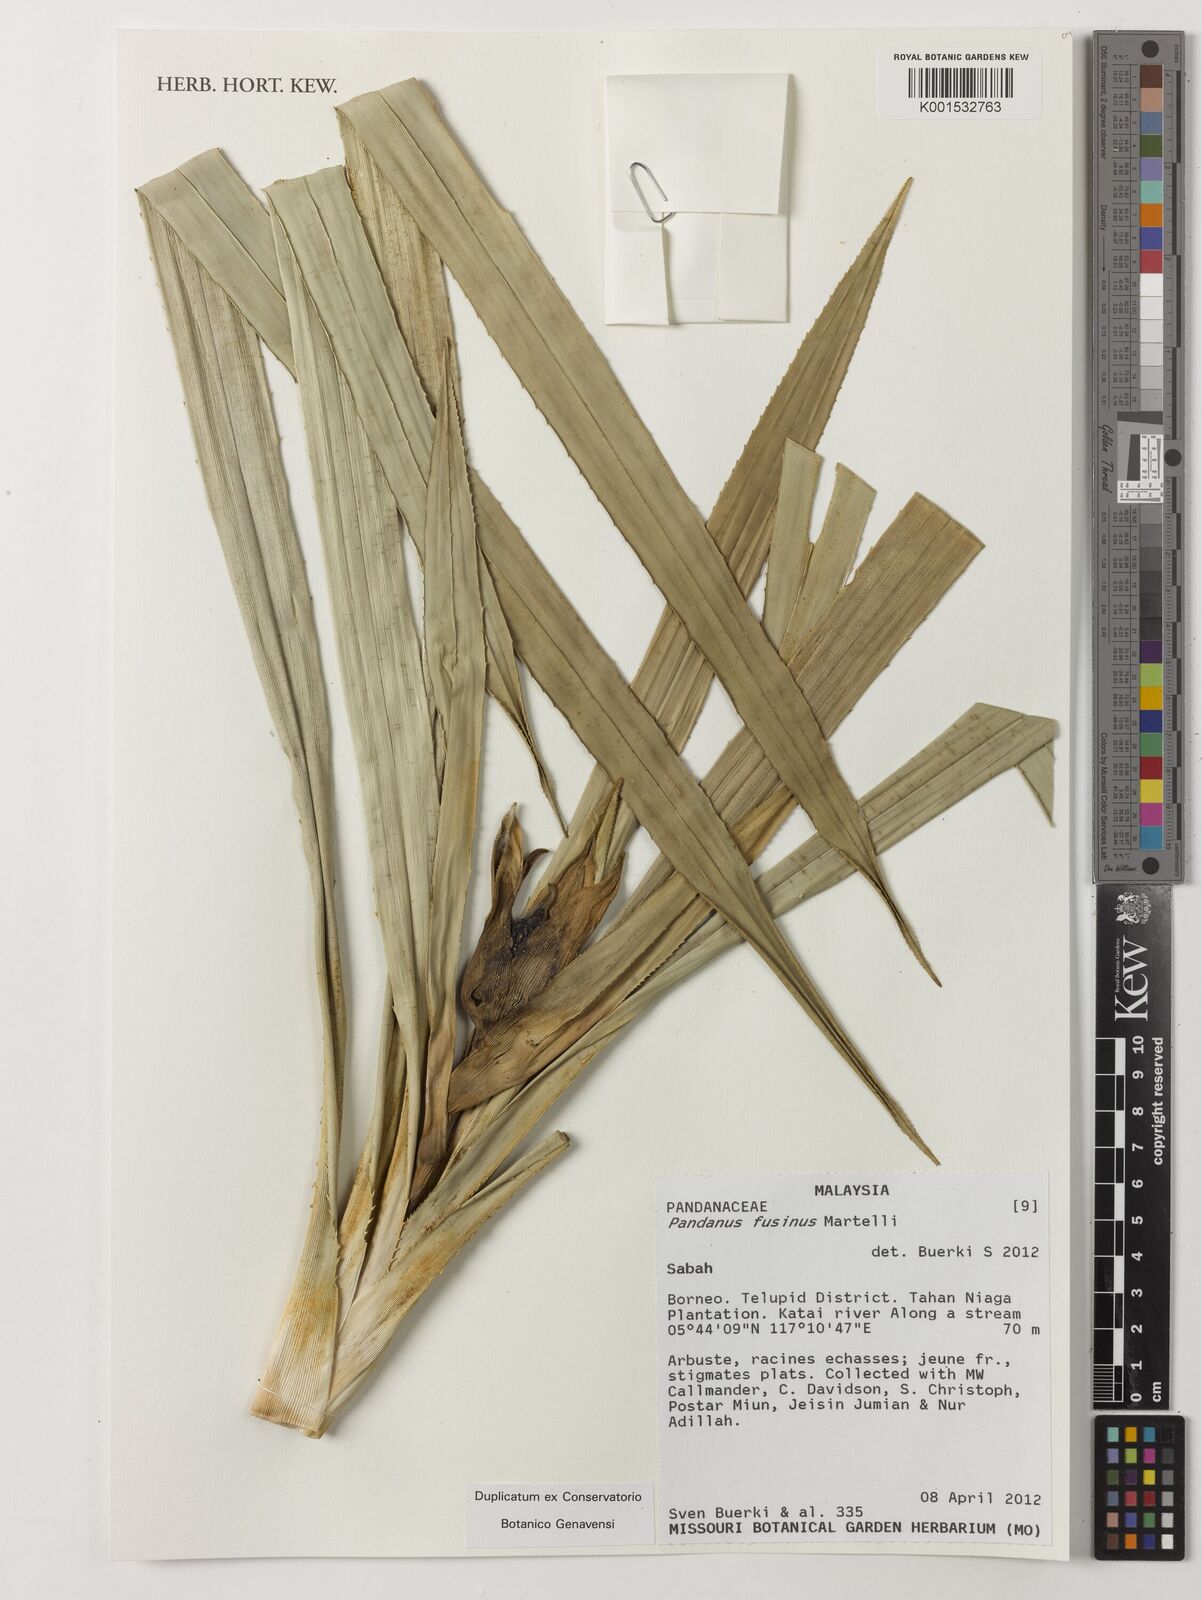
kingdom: Plantae
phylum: Tracheophyta
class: Liliopsida
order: Pandanales
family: Pandanaceae
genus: Pandanus
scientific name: Pandanus fusinus
